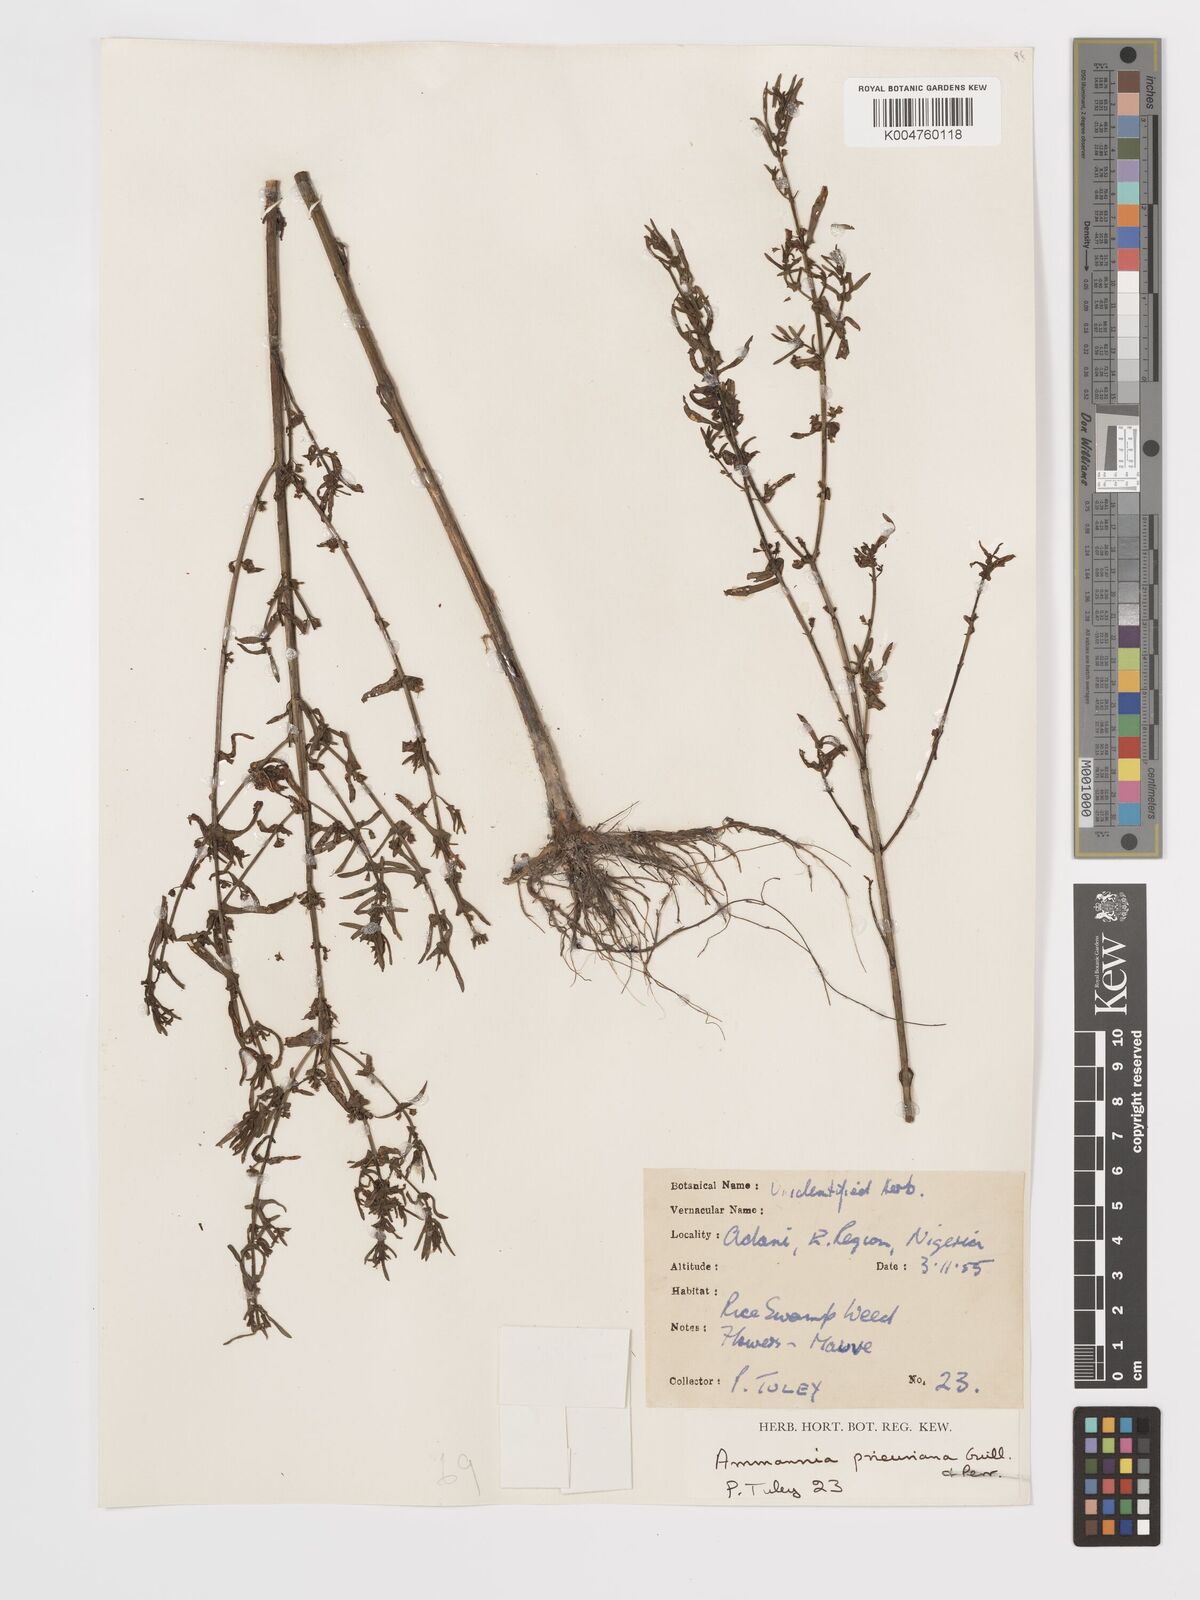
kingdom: Plantae
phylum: Tracheophyta
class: Magnoliopsida
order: Myrtales
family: Lythraceae
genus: Ammannia
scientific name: Ammannia prieuriana
